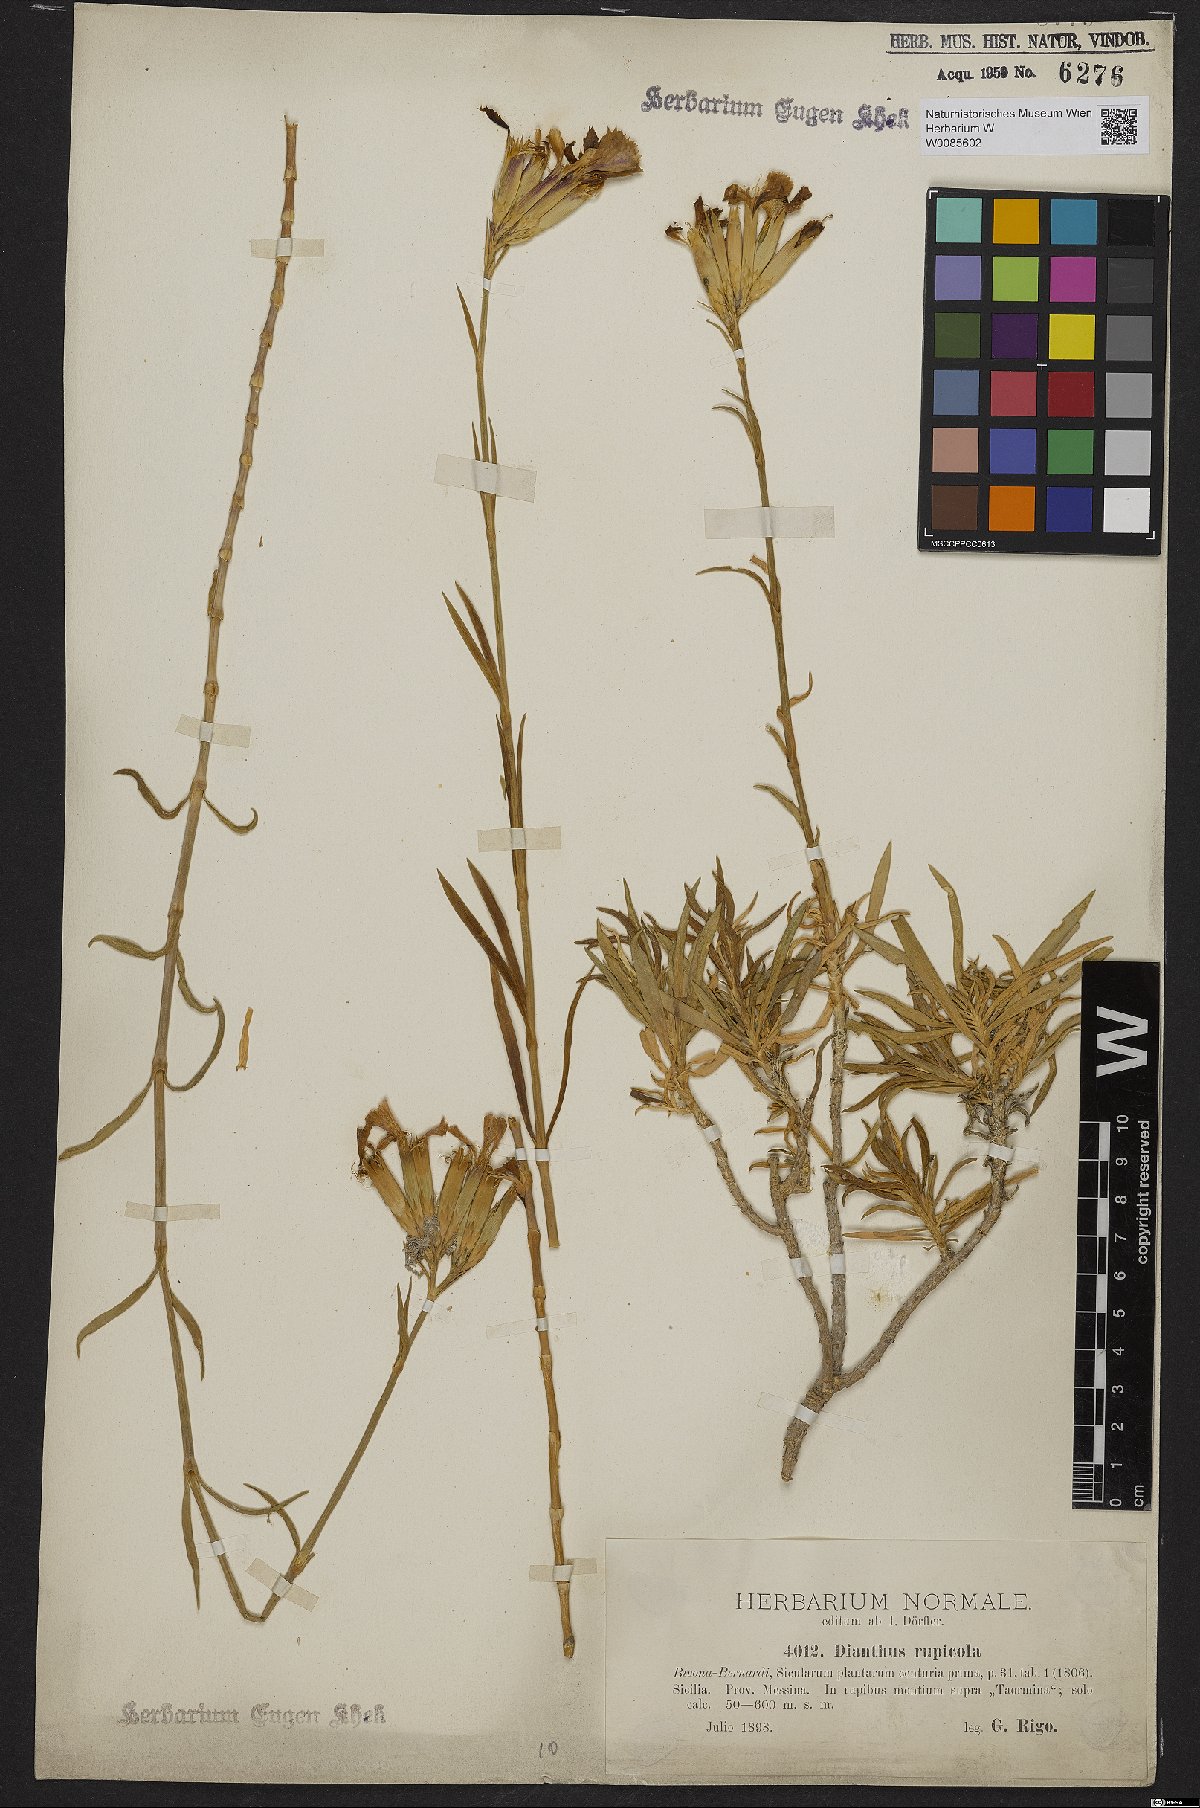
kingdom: Plantae
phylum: Tracheophyta
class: Magnoliopsida
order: Caryophyllales
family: Caryophyllaceae
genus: Dianthus
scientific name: Dianthus rupicola
